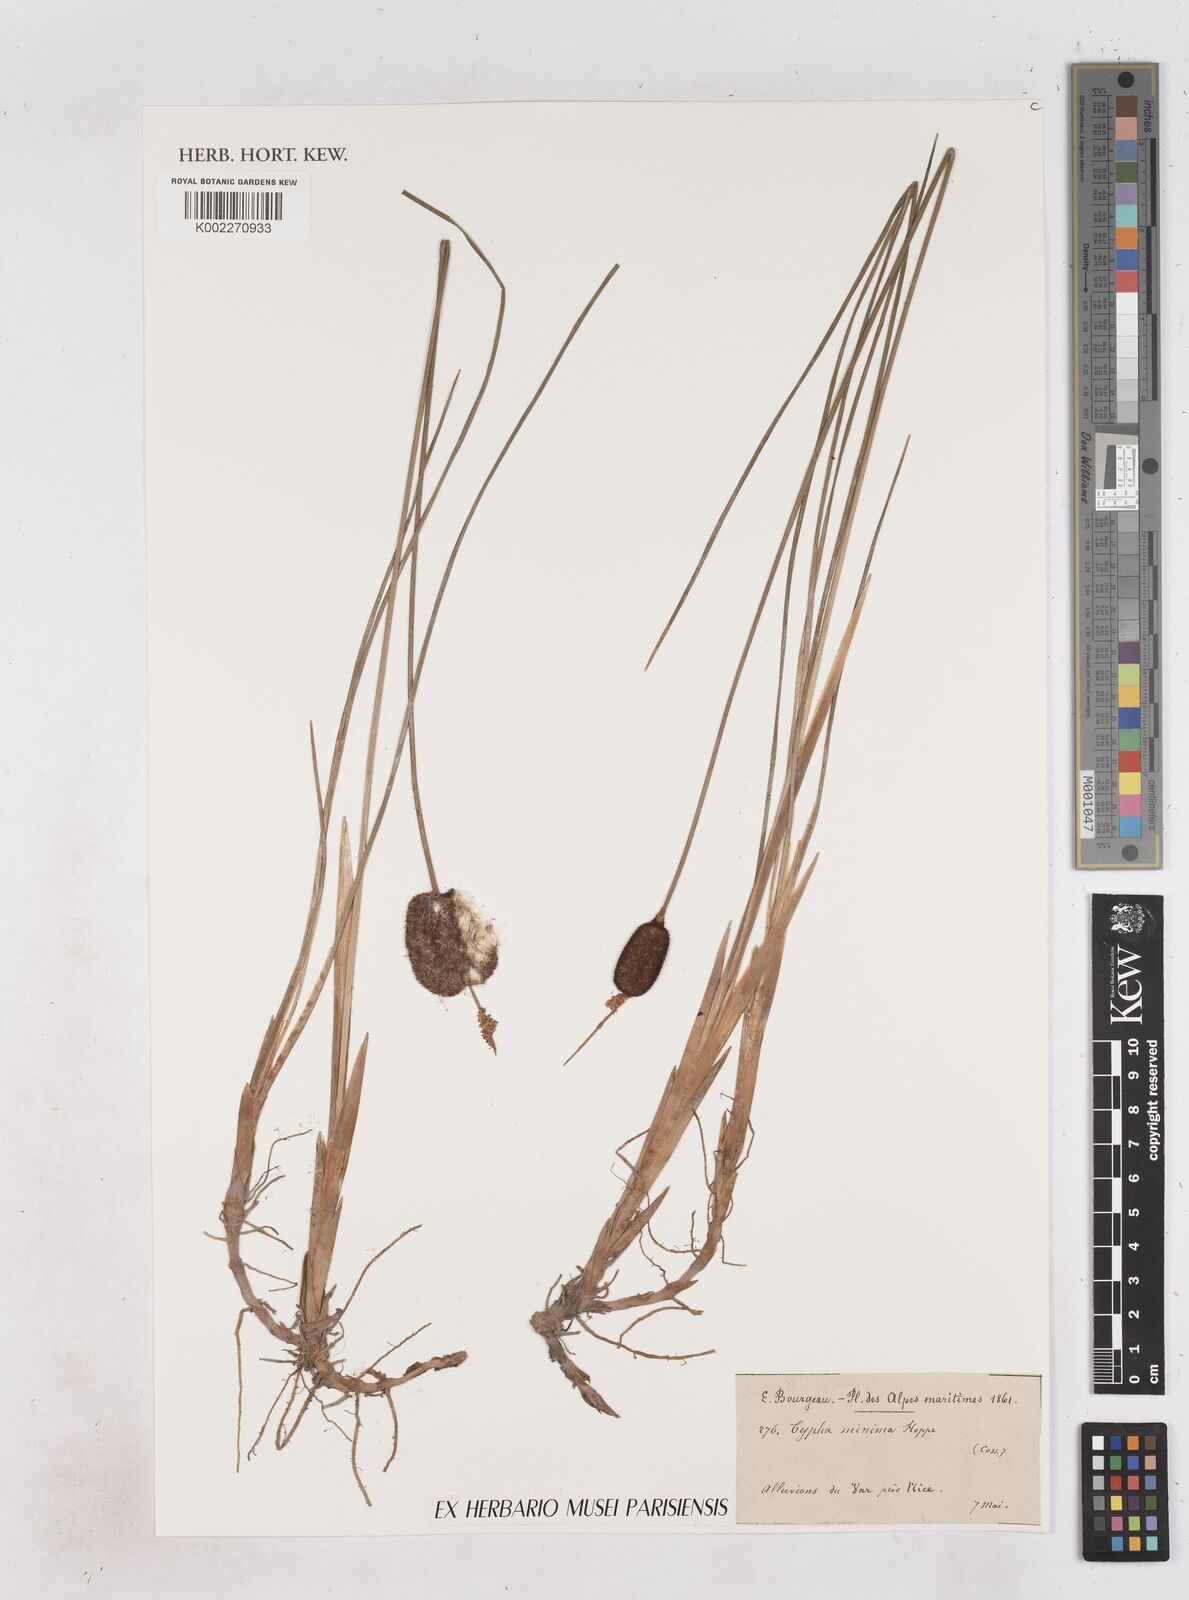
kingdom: Plantae
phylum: Tracheophyta
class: Liliopsida
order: Poales
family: Typhaceae
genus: Typha
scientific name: Typha
